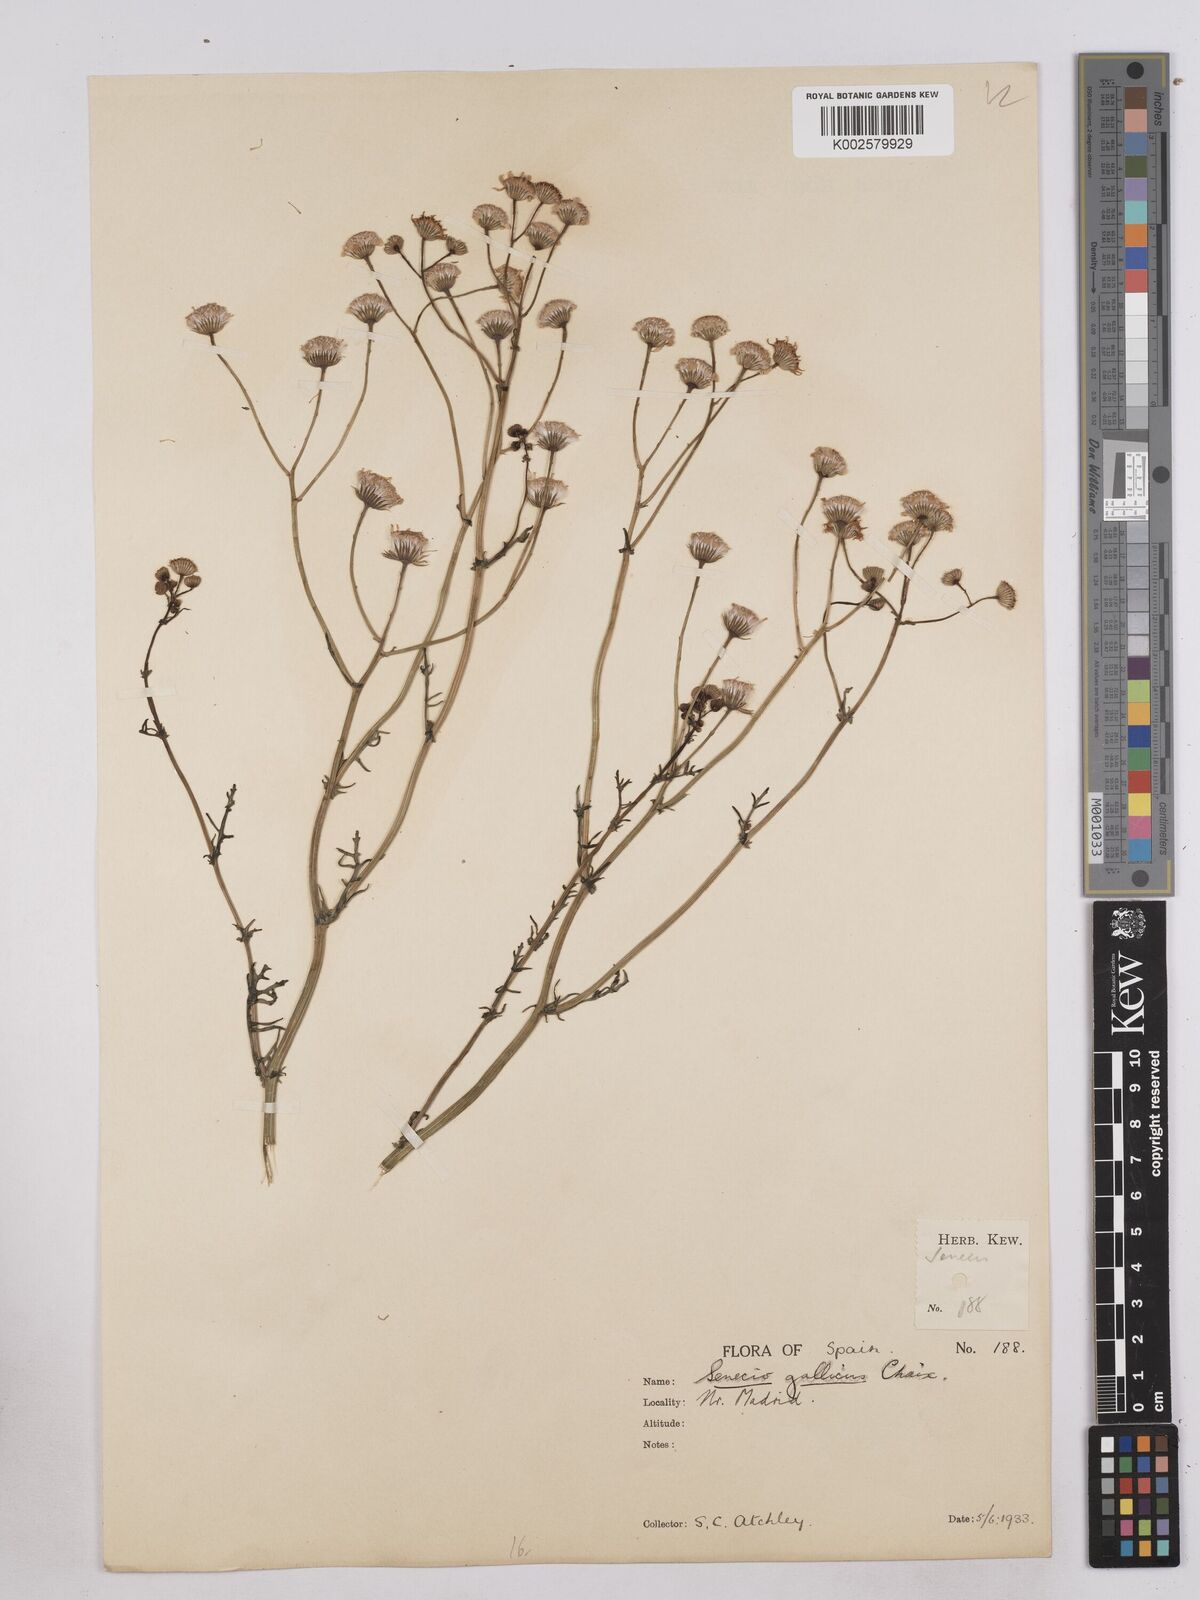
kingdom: Plantae
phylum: Tracheophyta
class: Magnoliopsida
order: Asterales
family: Asteraceae
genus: Senecio
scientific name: Senecio gallicus
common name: French groundsel
